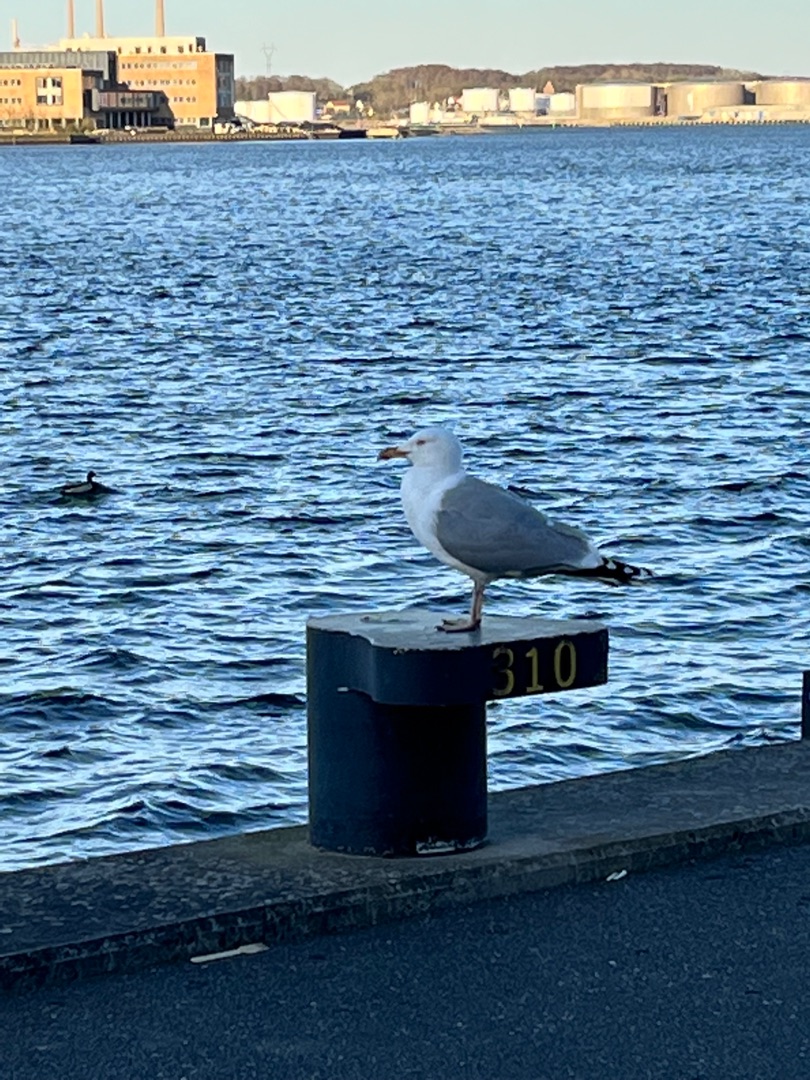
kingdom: Animalia
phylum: Chordata
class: Aves
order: Charadriiformes
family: Laridae
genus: Larus
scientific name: Larus argentatus
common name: Sølvmåge
